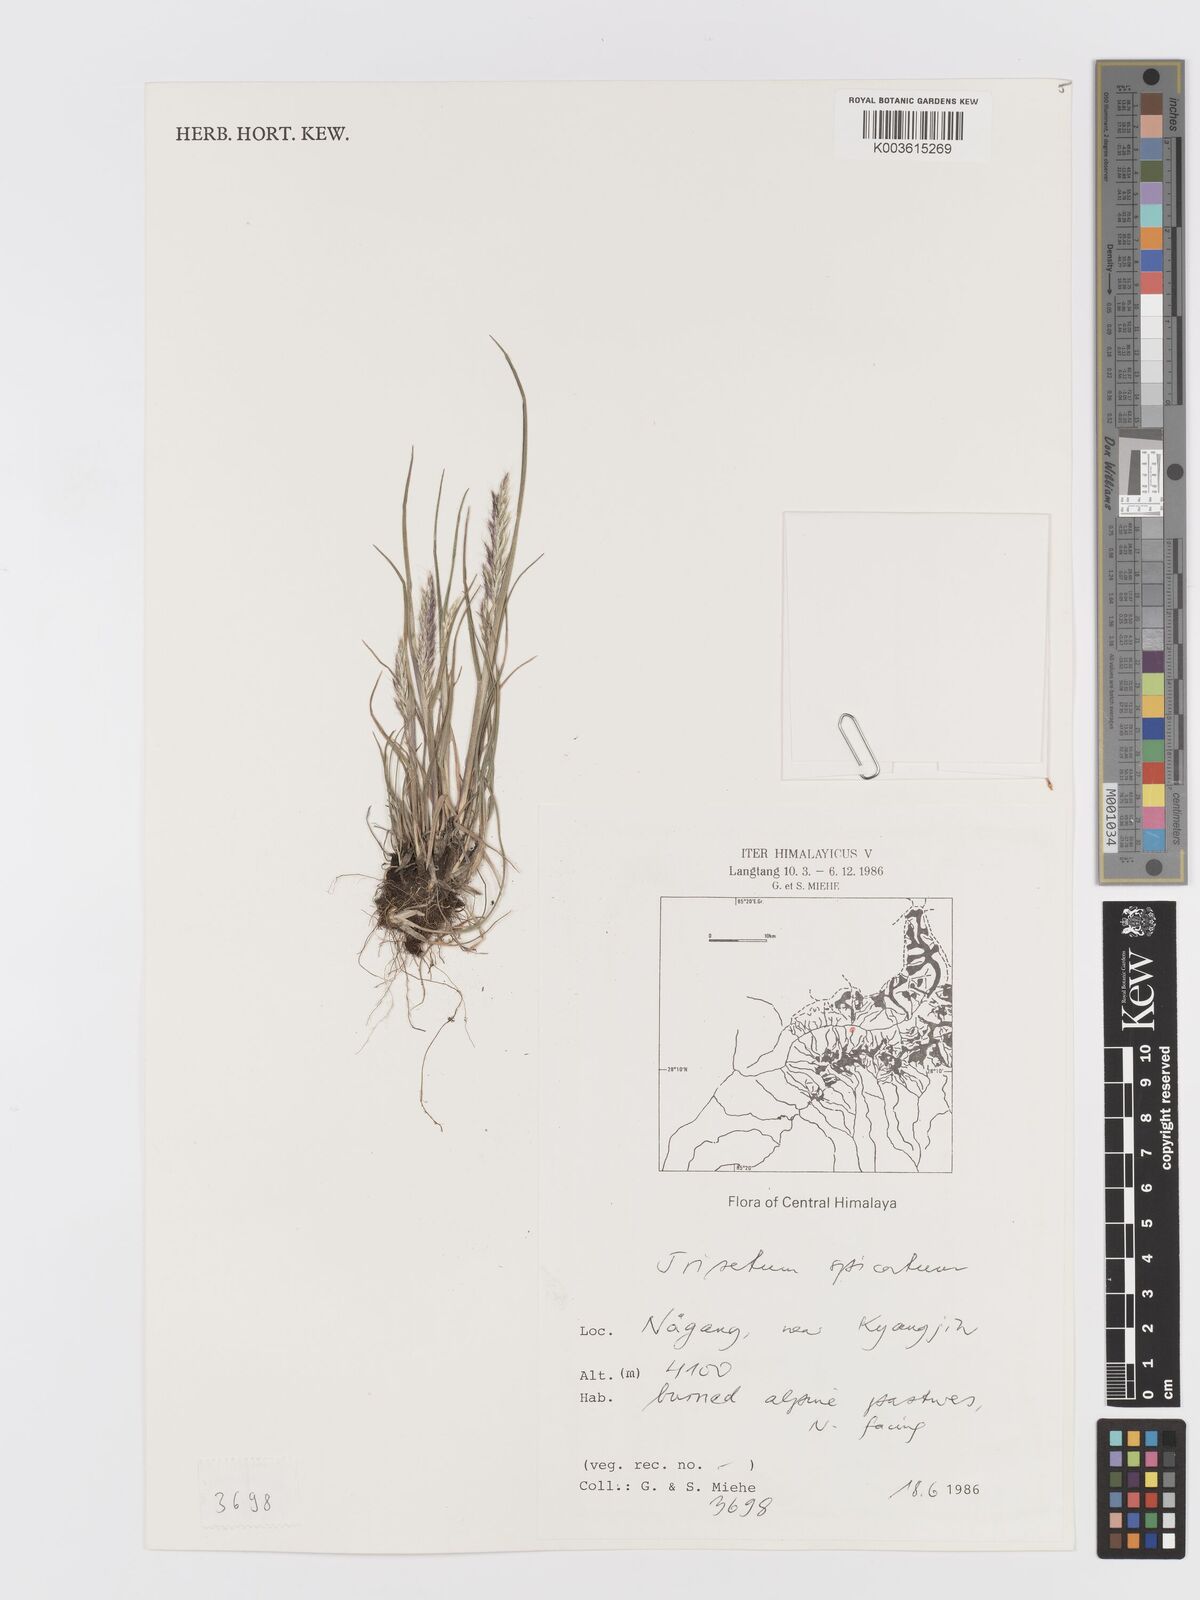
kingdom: Plantae
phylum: Tracheophyta
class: Liliopsida
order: Poales
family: Poaceae
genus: Koeleria
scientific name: Koeleria spicata
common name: Mountain trisetum
